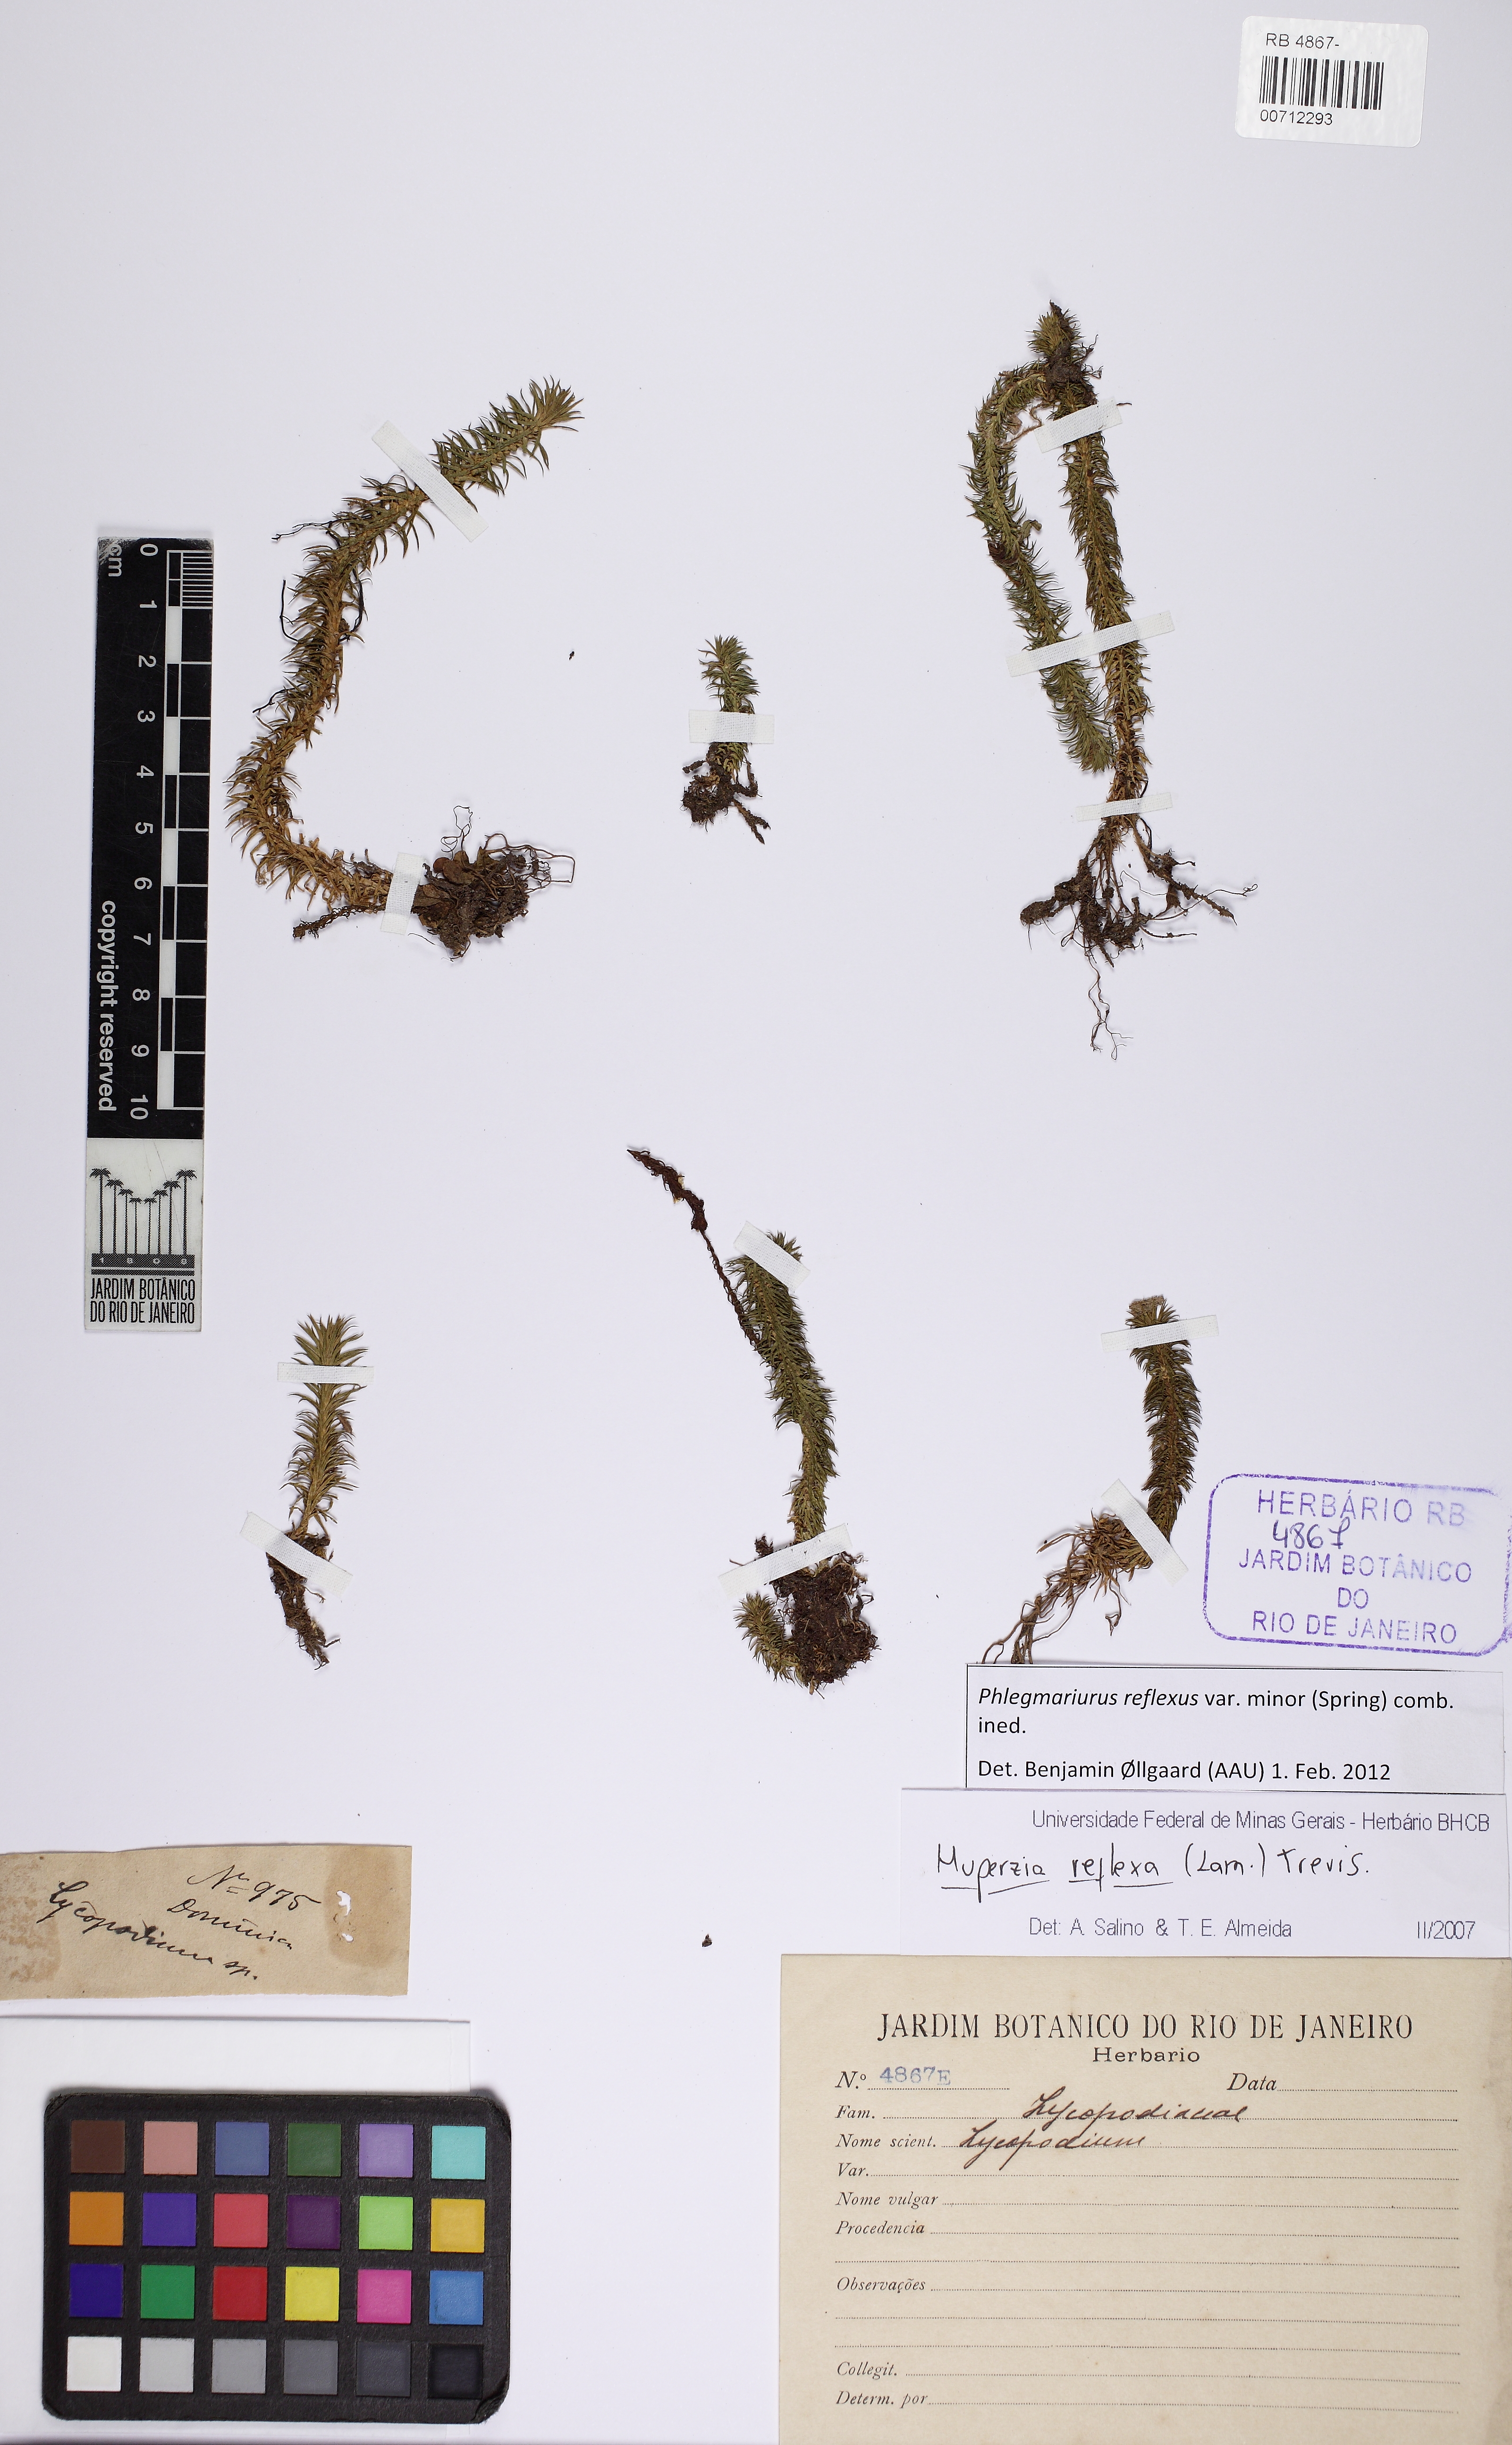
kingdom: Plantae
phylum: Tracheophyta
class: Lycopodiopsida
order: Lycopodiales
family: Lycopodiaceae
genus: Phlegmariurus
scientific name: Phlegmariurus reflexus
